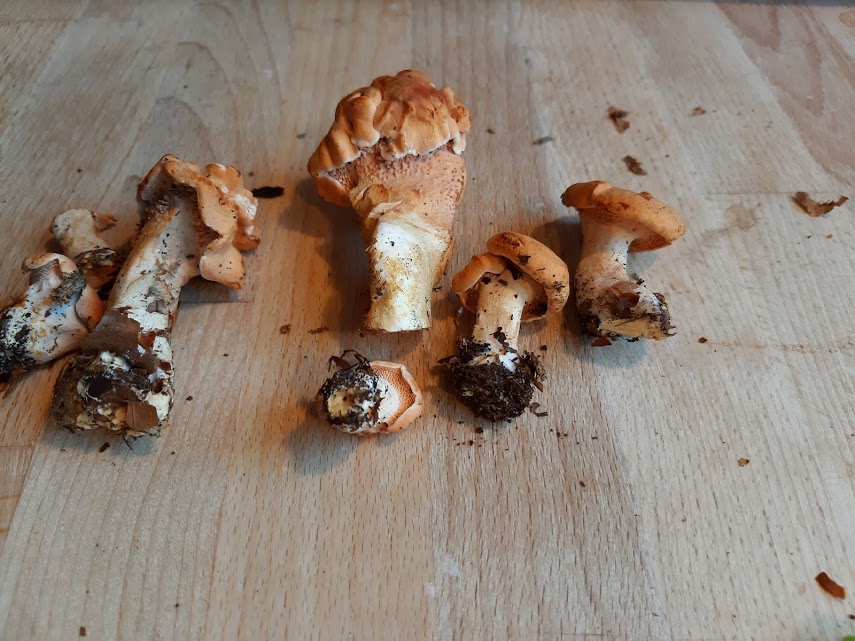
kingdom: Fungi
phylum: Basidiomycota
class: Agaricomycetes
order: Cantharellales
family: Hydnaceae
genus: Hydnum
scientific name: Hydnum
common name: pigsvamp
